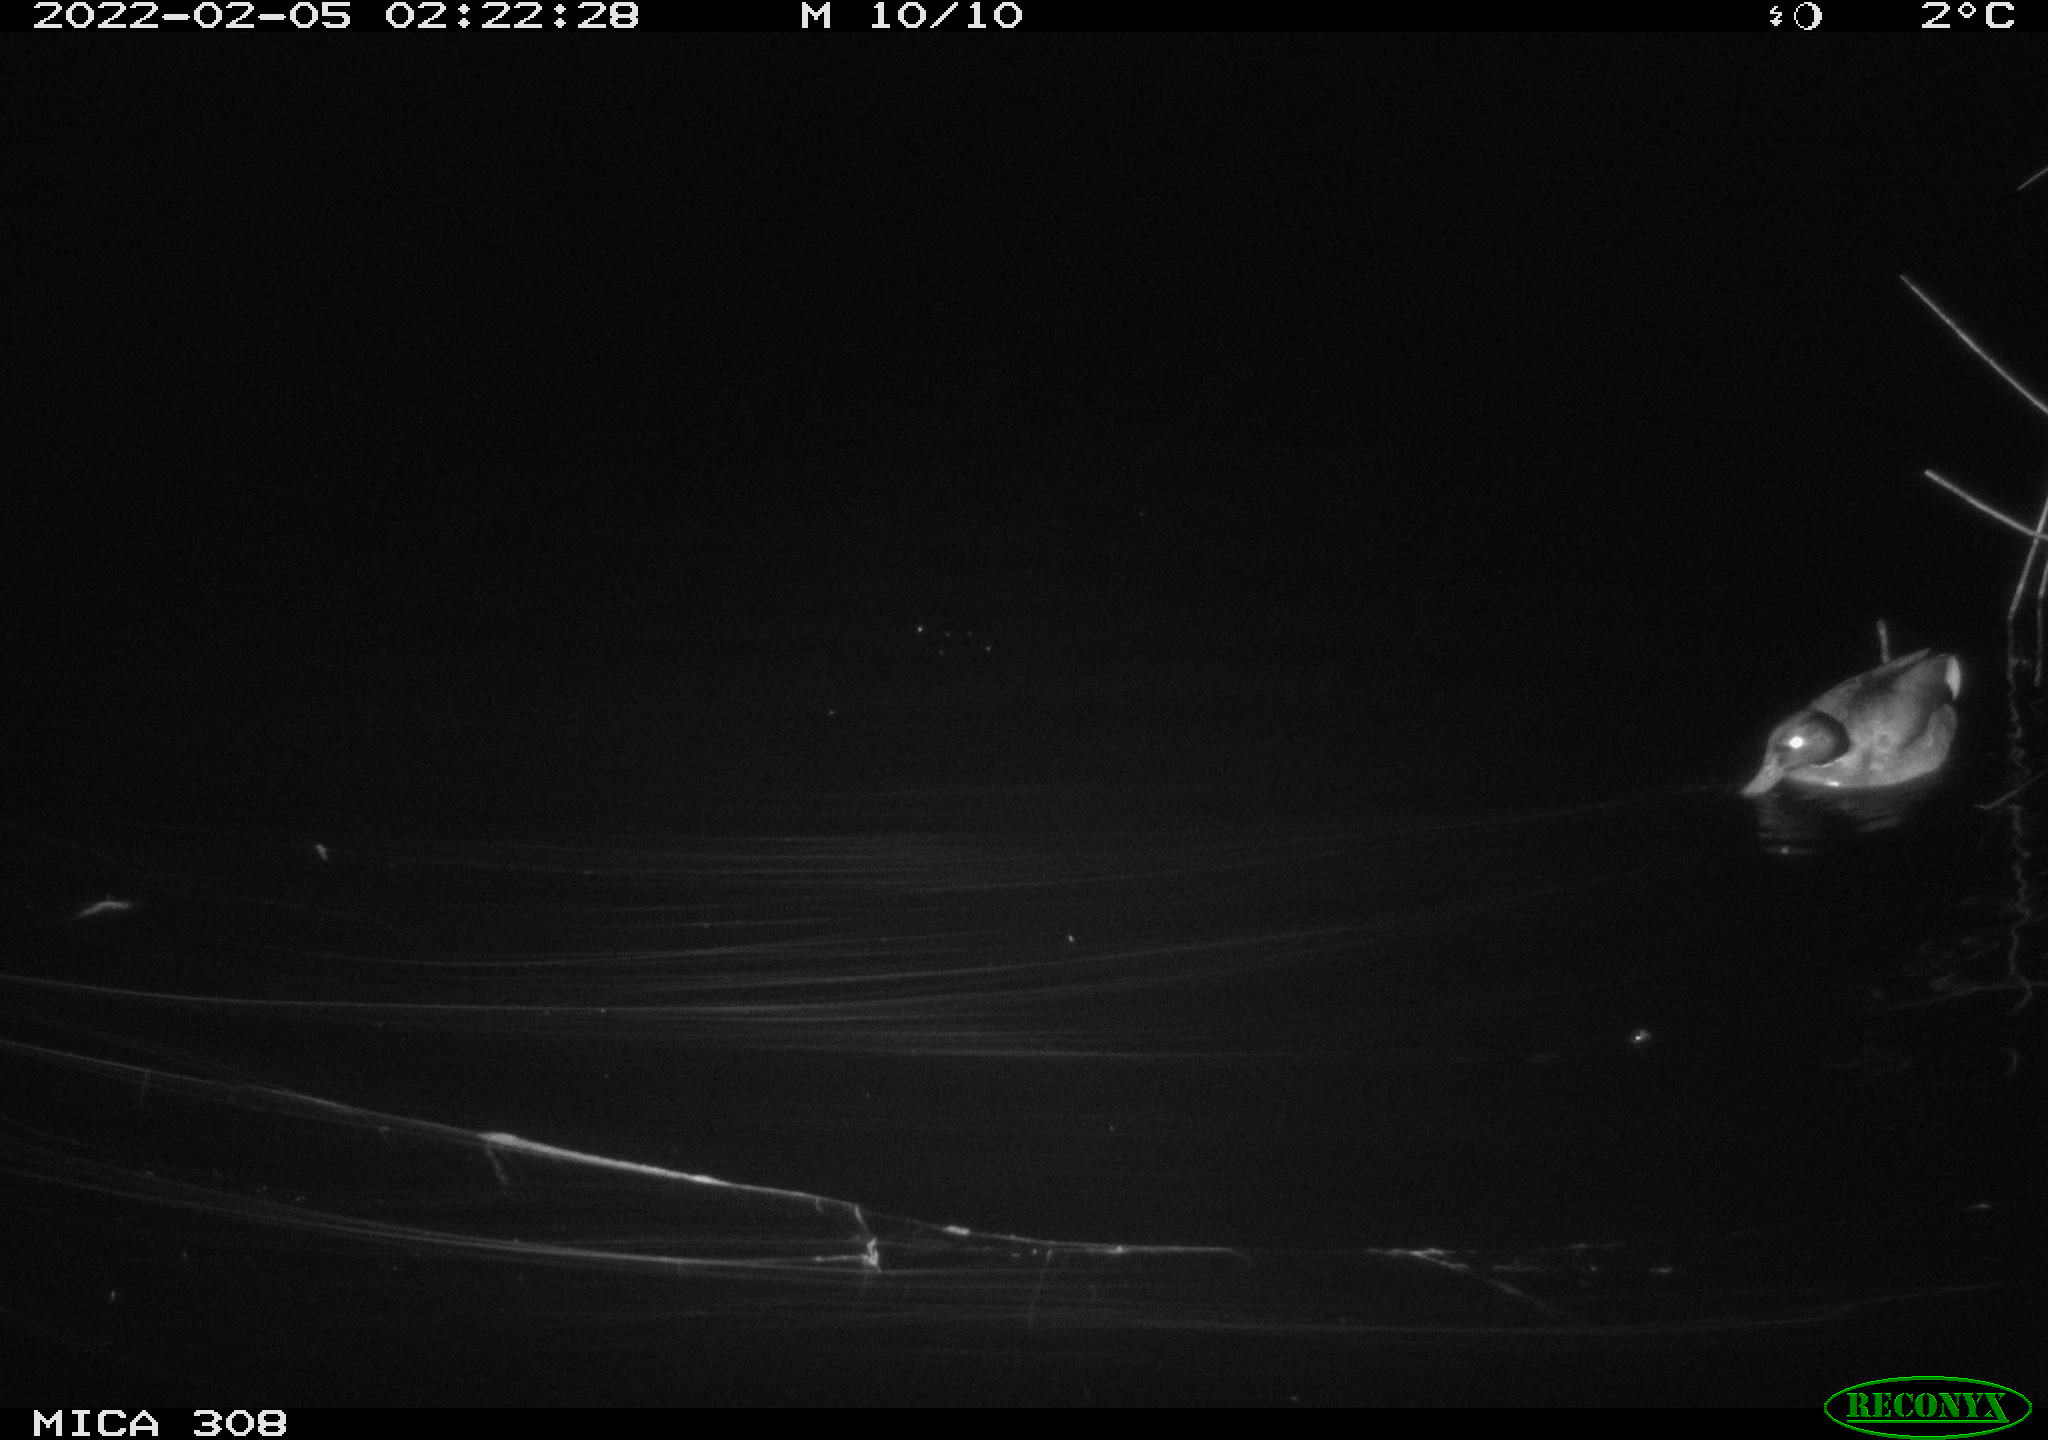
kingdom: Animalia
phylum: Chordata
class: Aves
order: Anseriformes
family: Anatidae
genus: Anas
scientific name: Anas platyrhynchos
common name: Mallard
